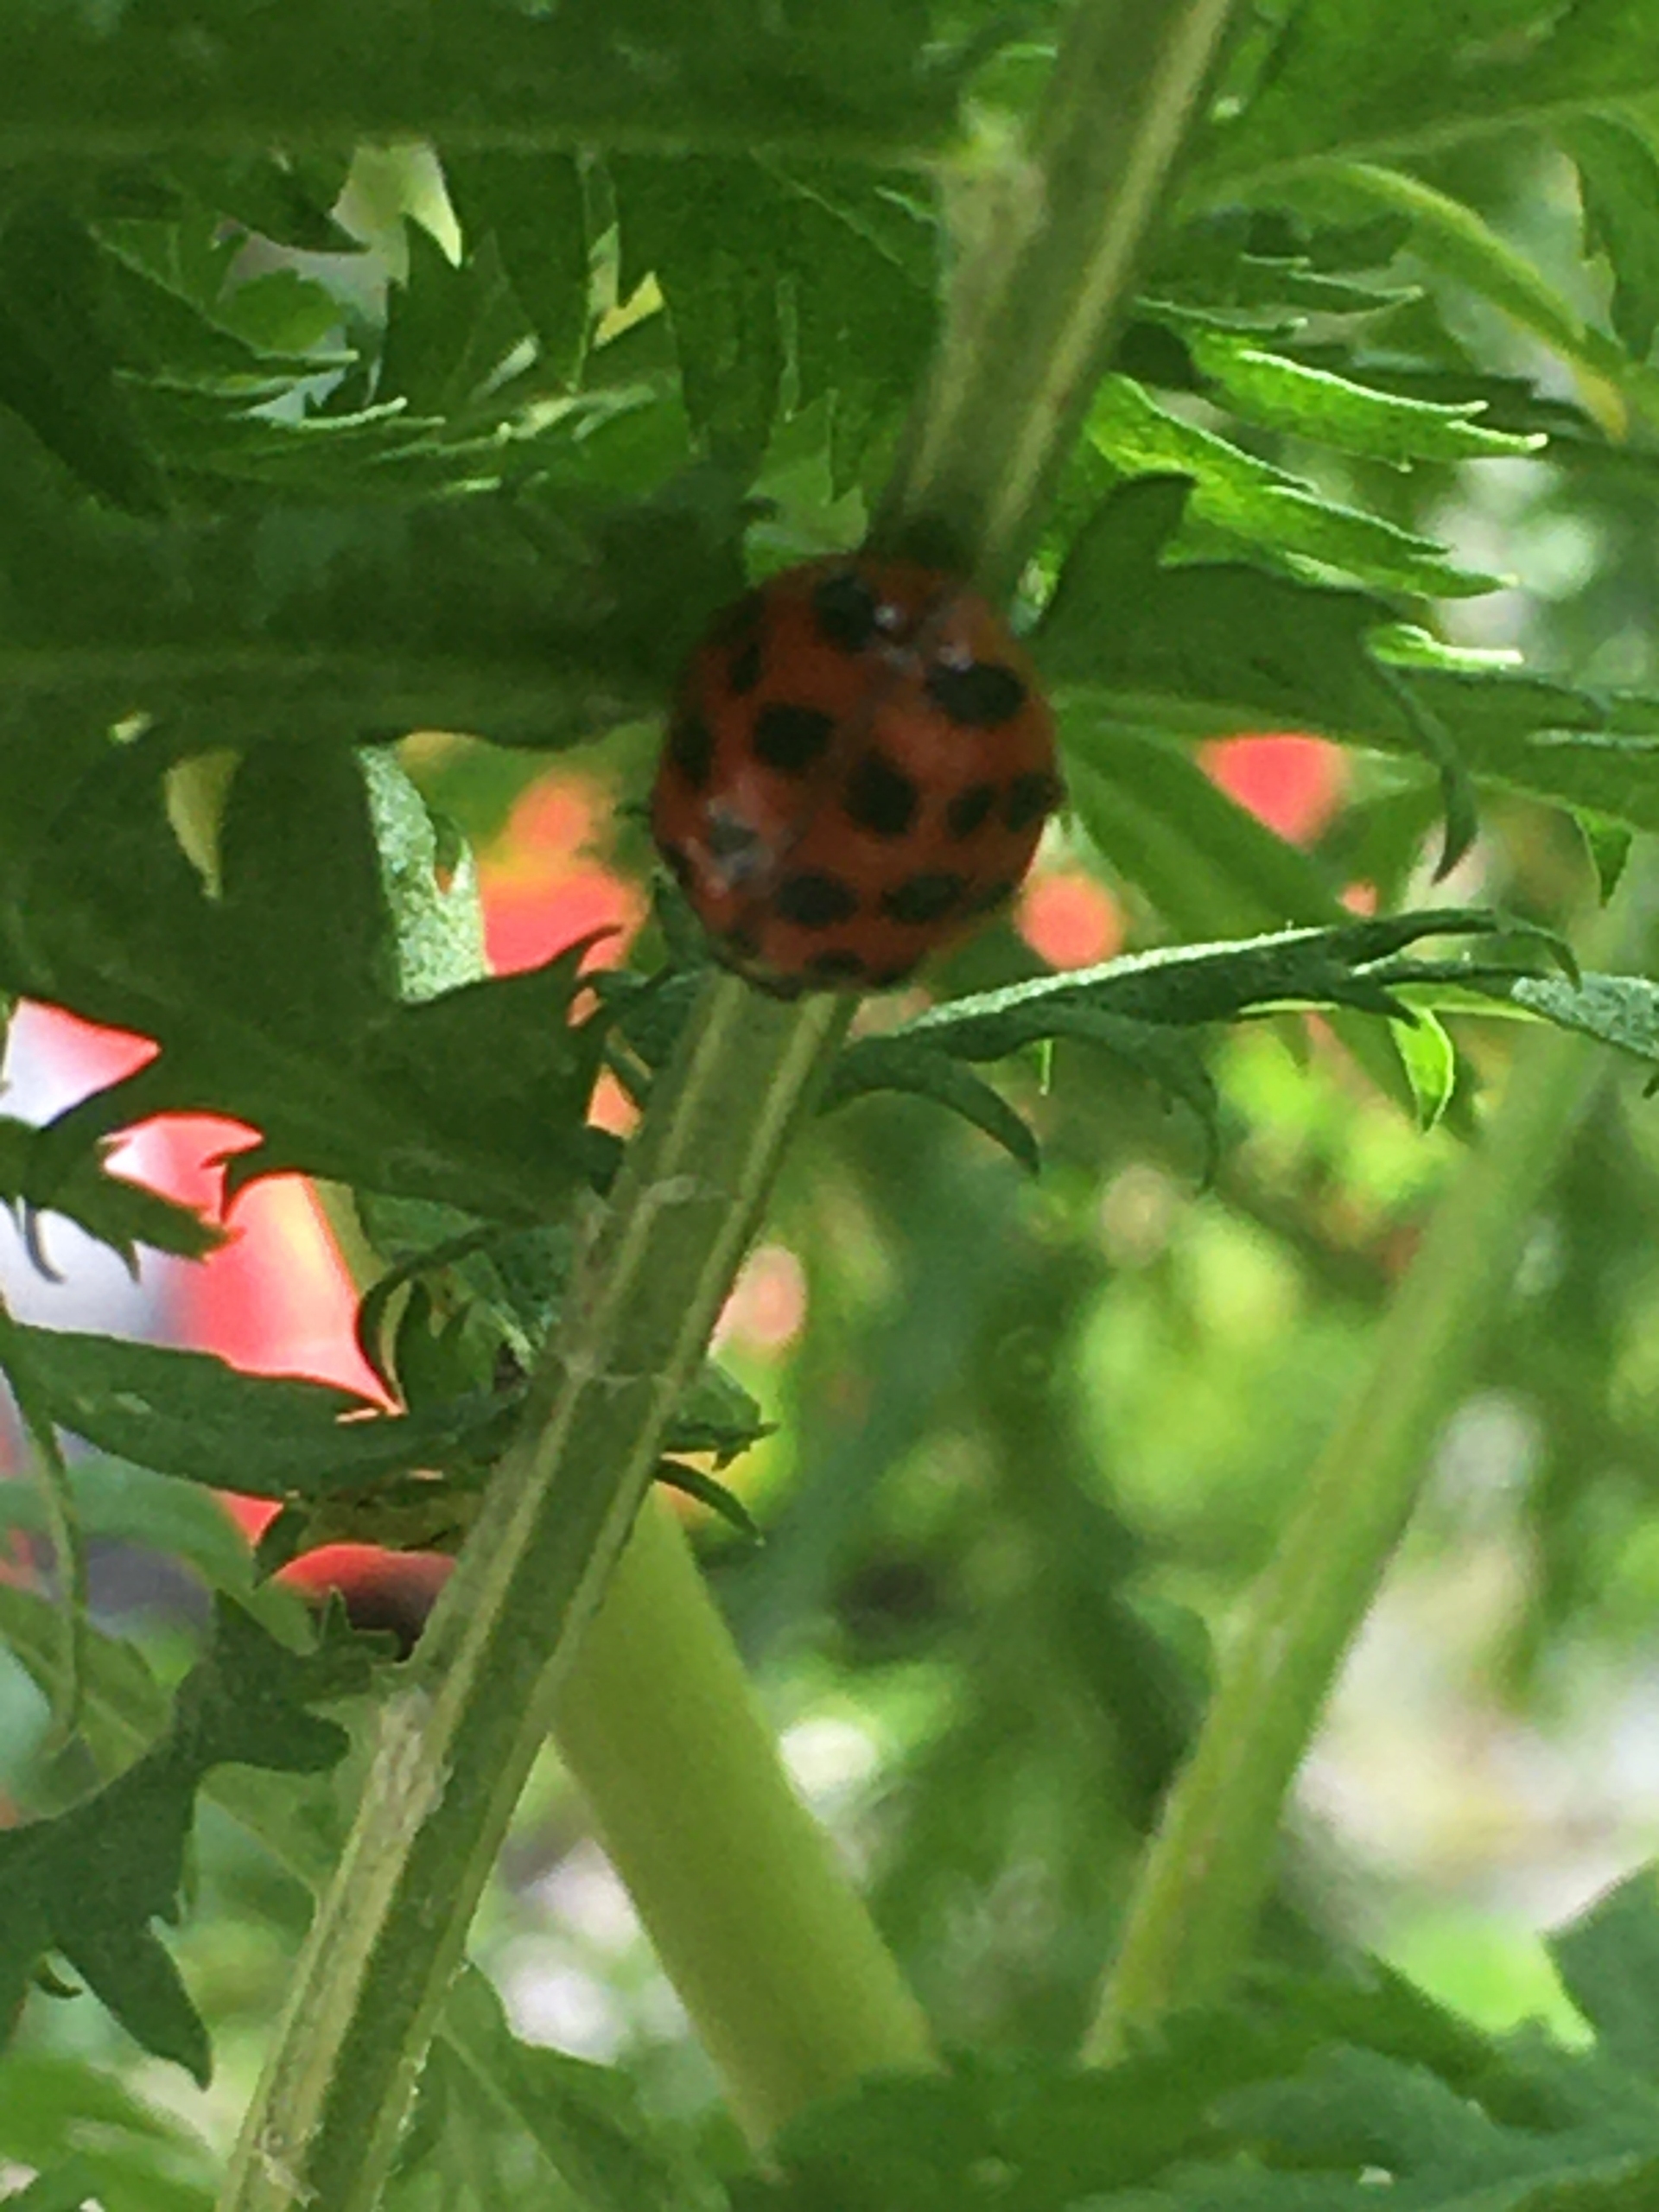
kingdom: Animalia
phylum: Arthropoda
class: Insecta
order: Coleoptera
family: Coccinellidae
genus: Harmonia
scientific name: Harmonia axyridis
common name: Harlekinmariehøne
